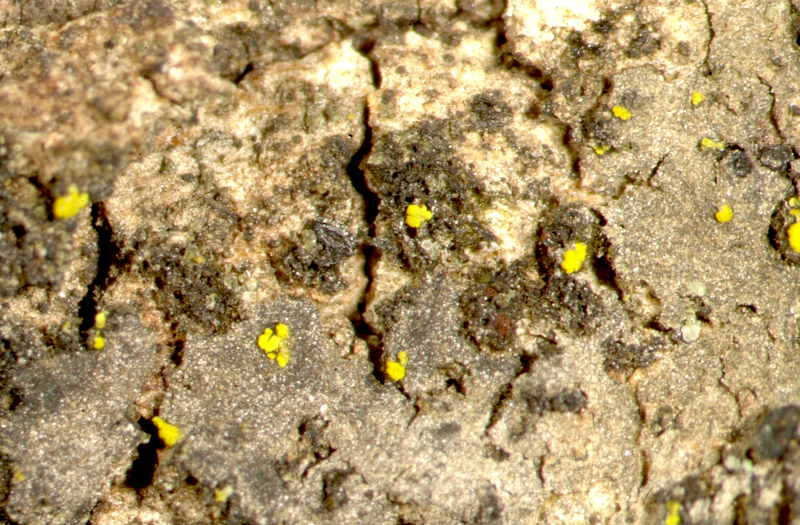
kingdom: Fungi
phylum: Ascomycota
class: Candelariomycetes
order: Candelariales
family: Candelariaceae
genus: Candelaria
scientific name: Candelaria concolor
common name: Candleflame lichen
